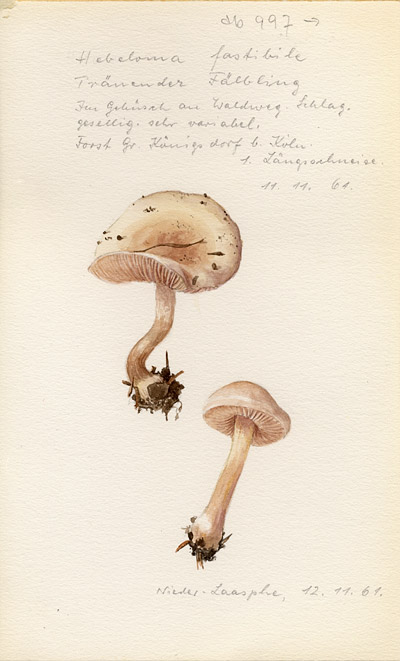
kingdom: Fungi
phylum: Basidiomycota
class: Agaricomycetes
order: Agaricales
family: Hymenogastraceae
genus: Hebeloma
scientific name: Hebeloma
